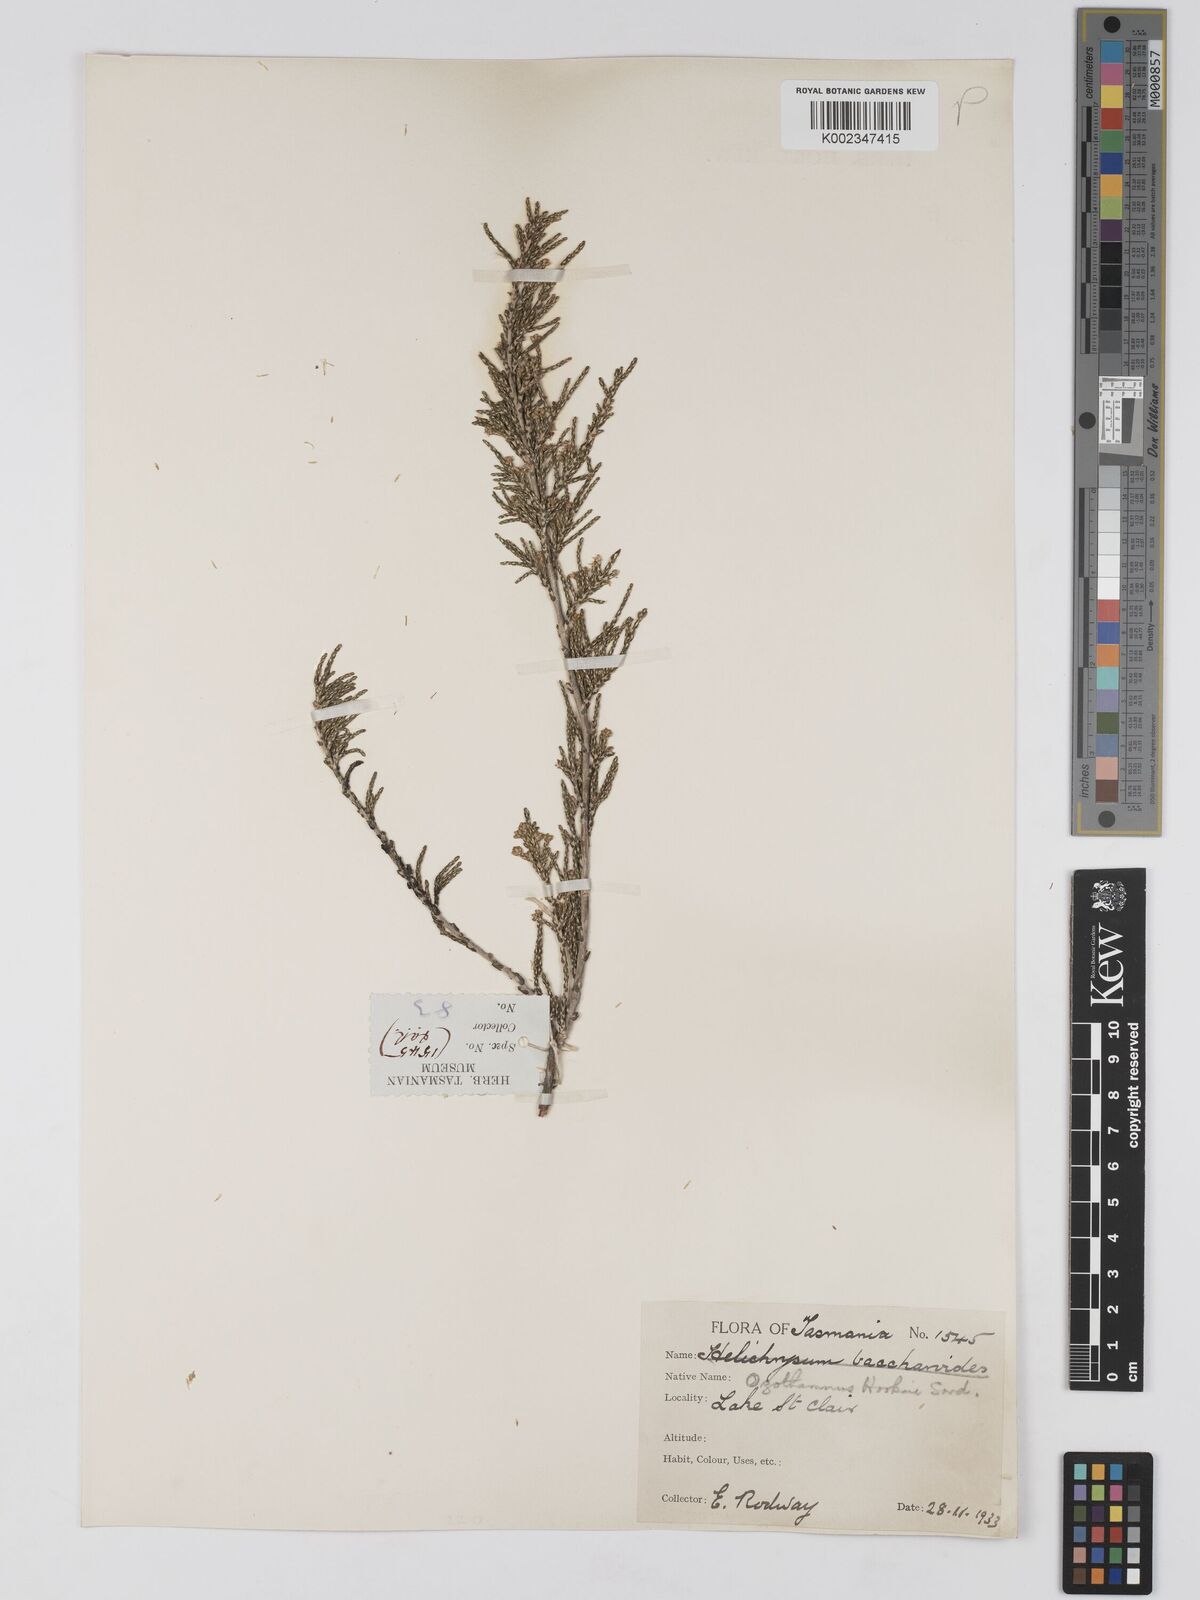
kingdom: Plantae
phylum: Tracheophyta
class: Magnoliopsida
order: Asterales
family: Asteraceae
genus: Ozothamnus
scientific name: Ozothamnus hookeri
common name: Kerosene-bush
